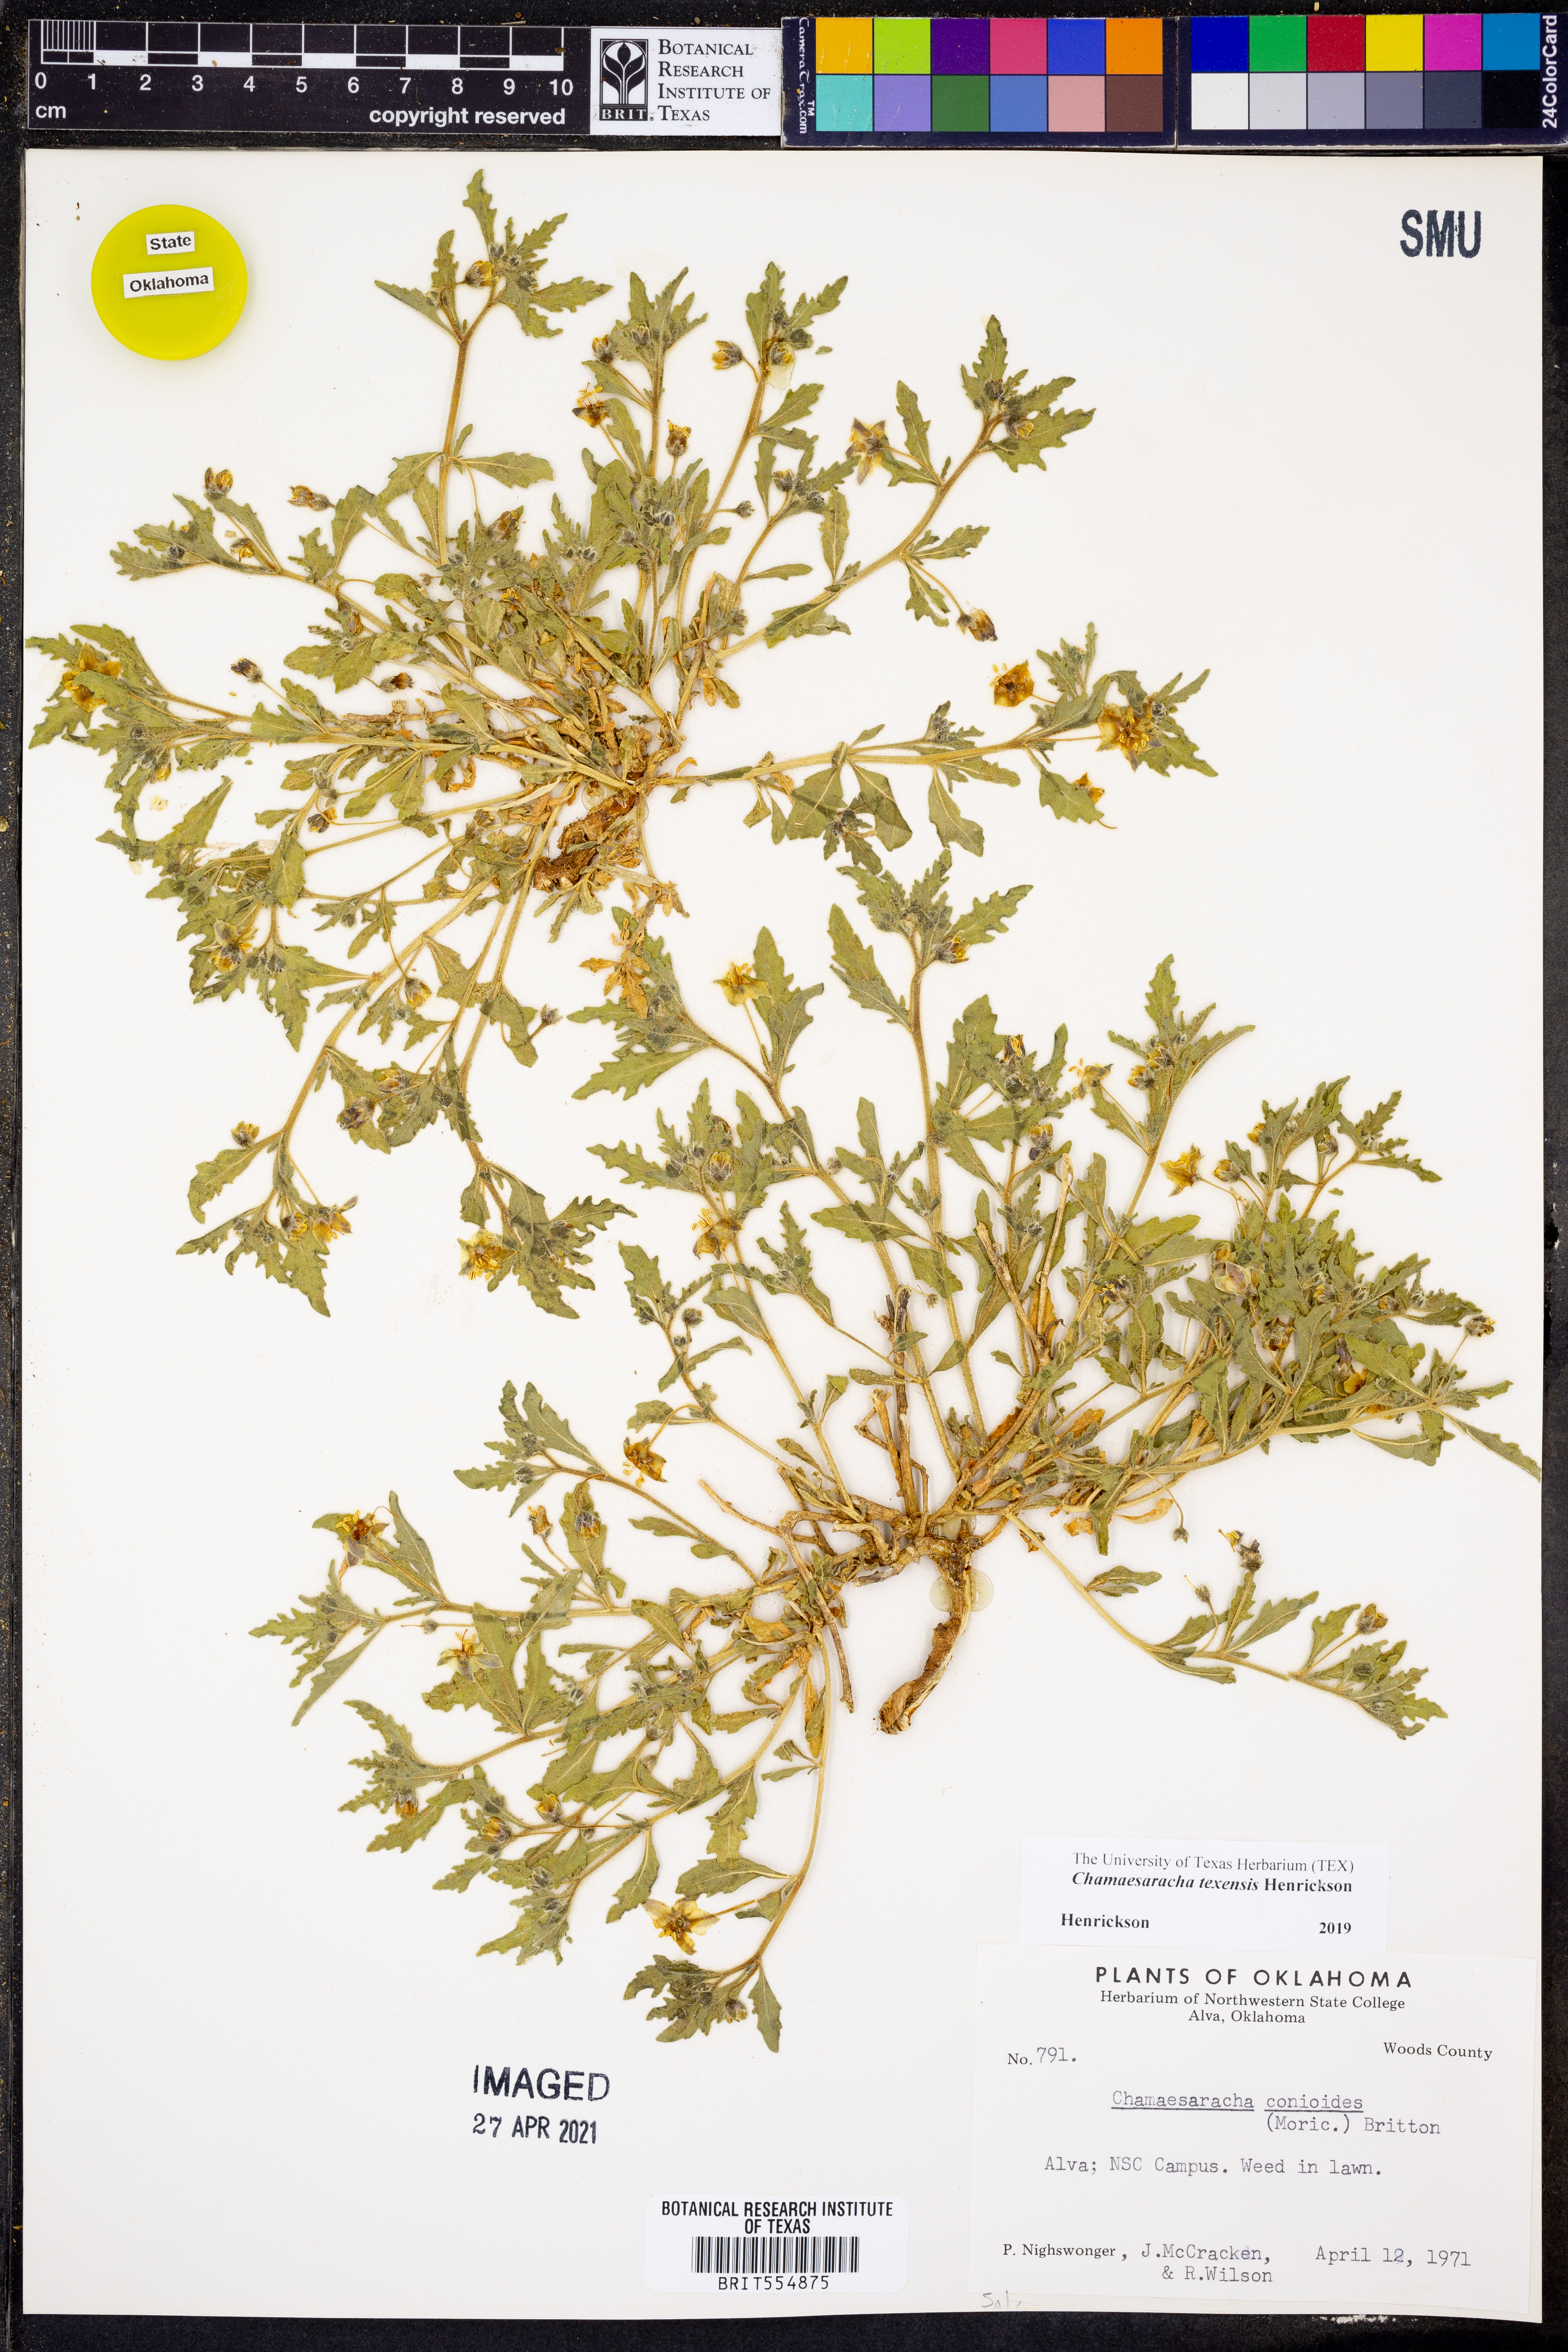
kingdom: Plantae
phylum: Tracheophyta
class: Magnoliopsida
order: Solanales
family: Solanaceae
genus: Chamaesaracha
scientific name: Chamaesaracha texensis
